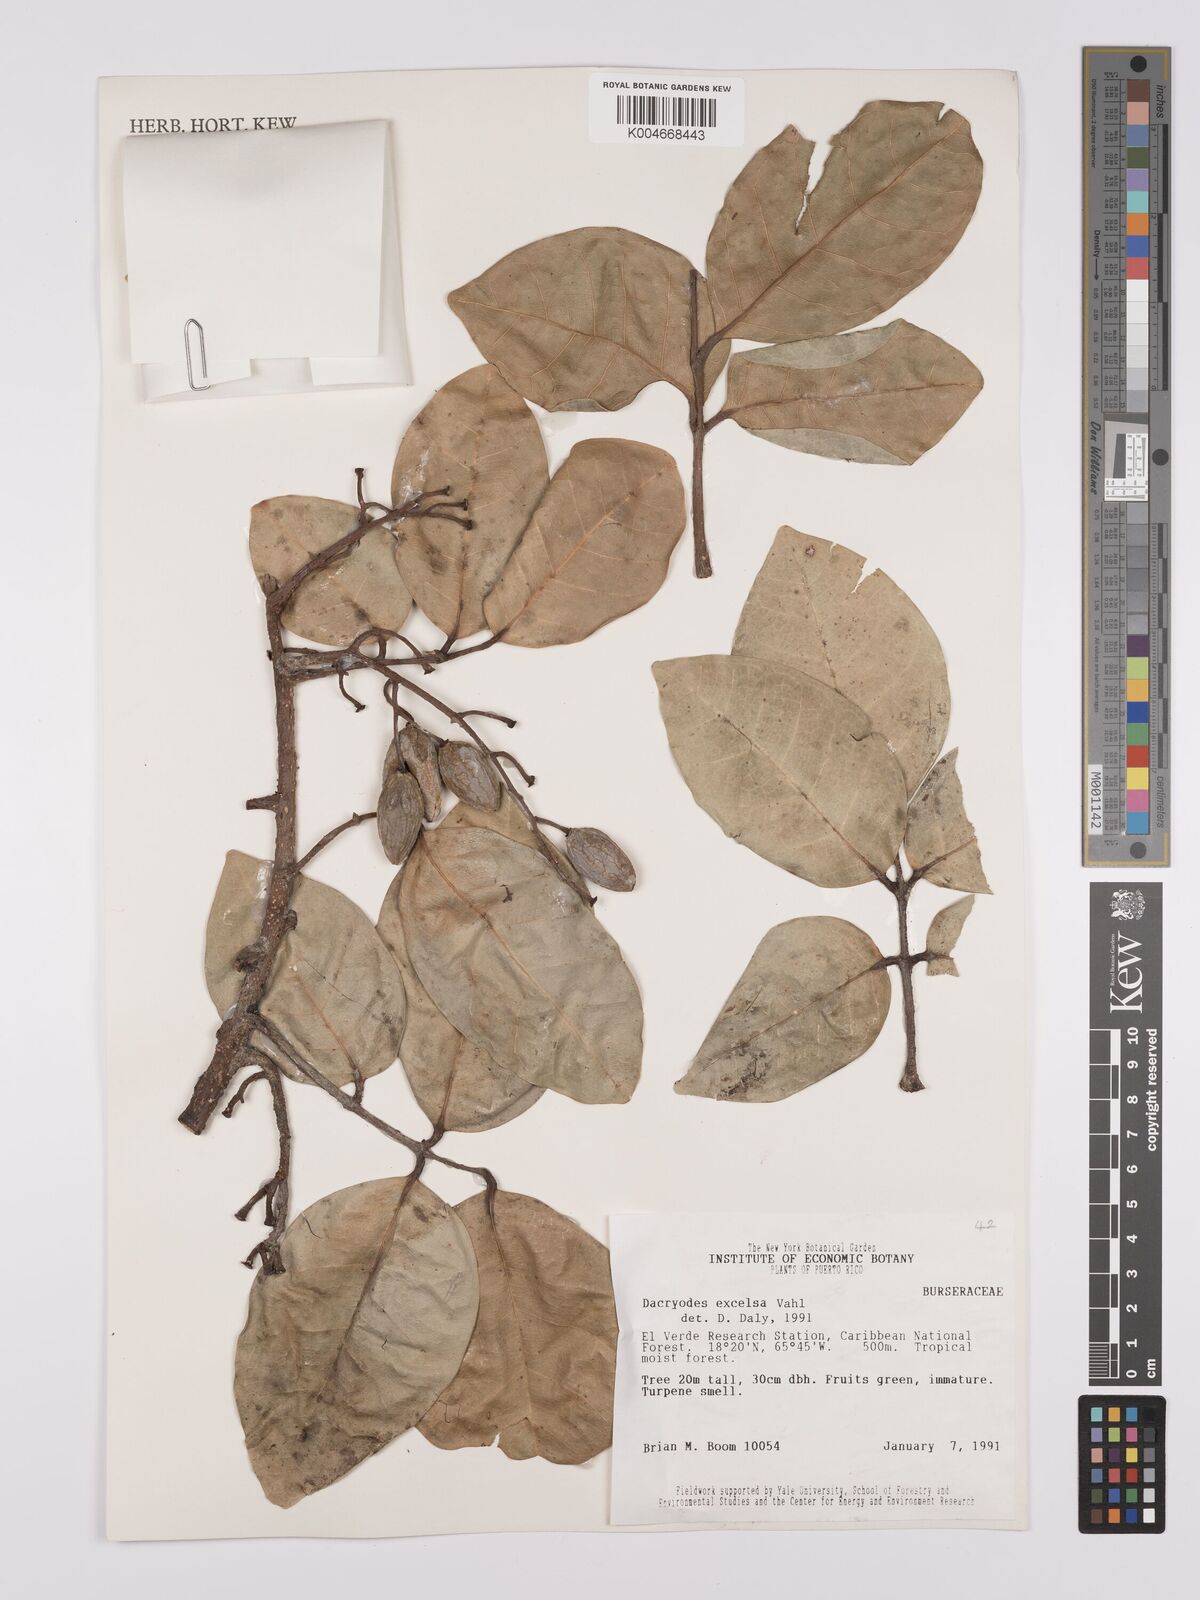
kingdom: Plantae
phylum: Tracheophyta
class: Magnoliopsida
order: Sapindales
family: Burseraceae
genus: Dacryodes
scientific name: Dacryodes excelsa
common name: Candlewood
